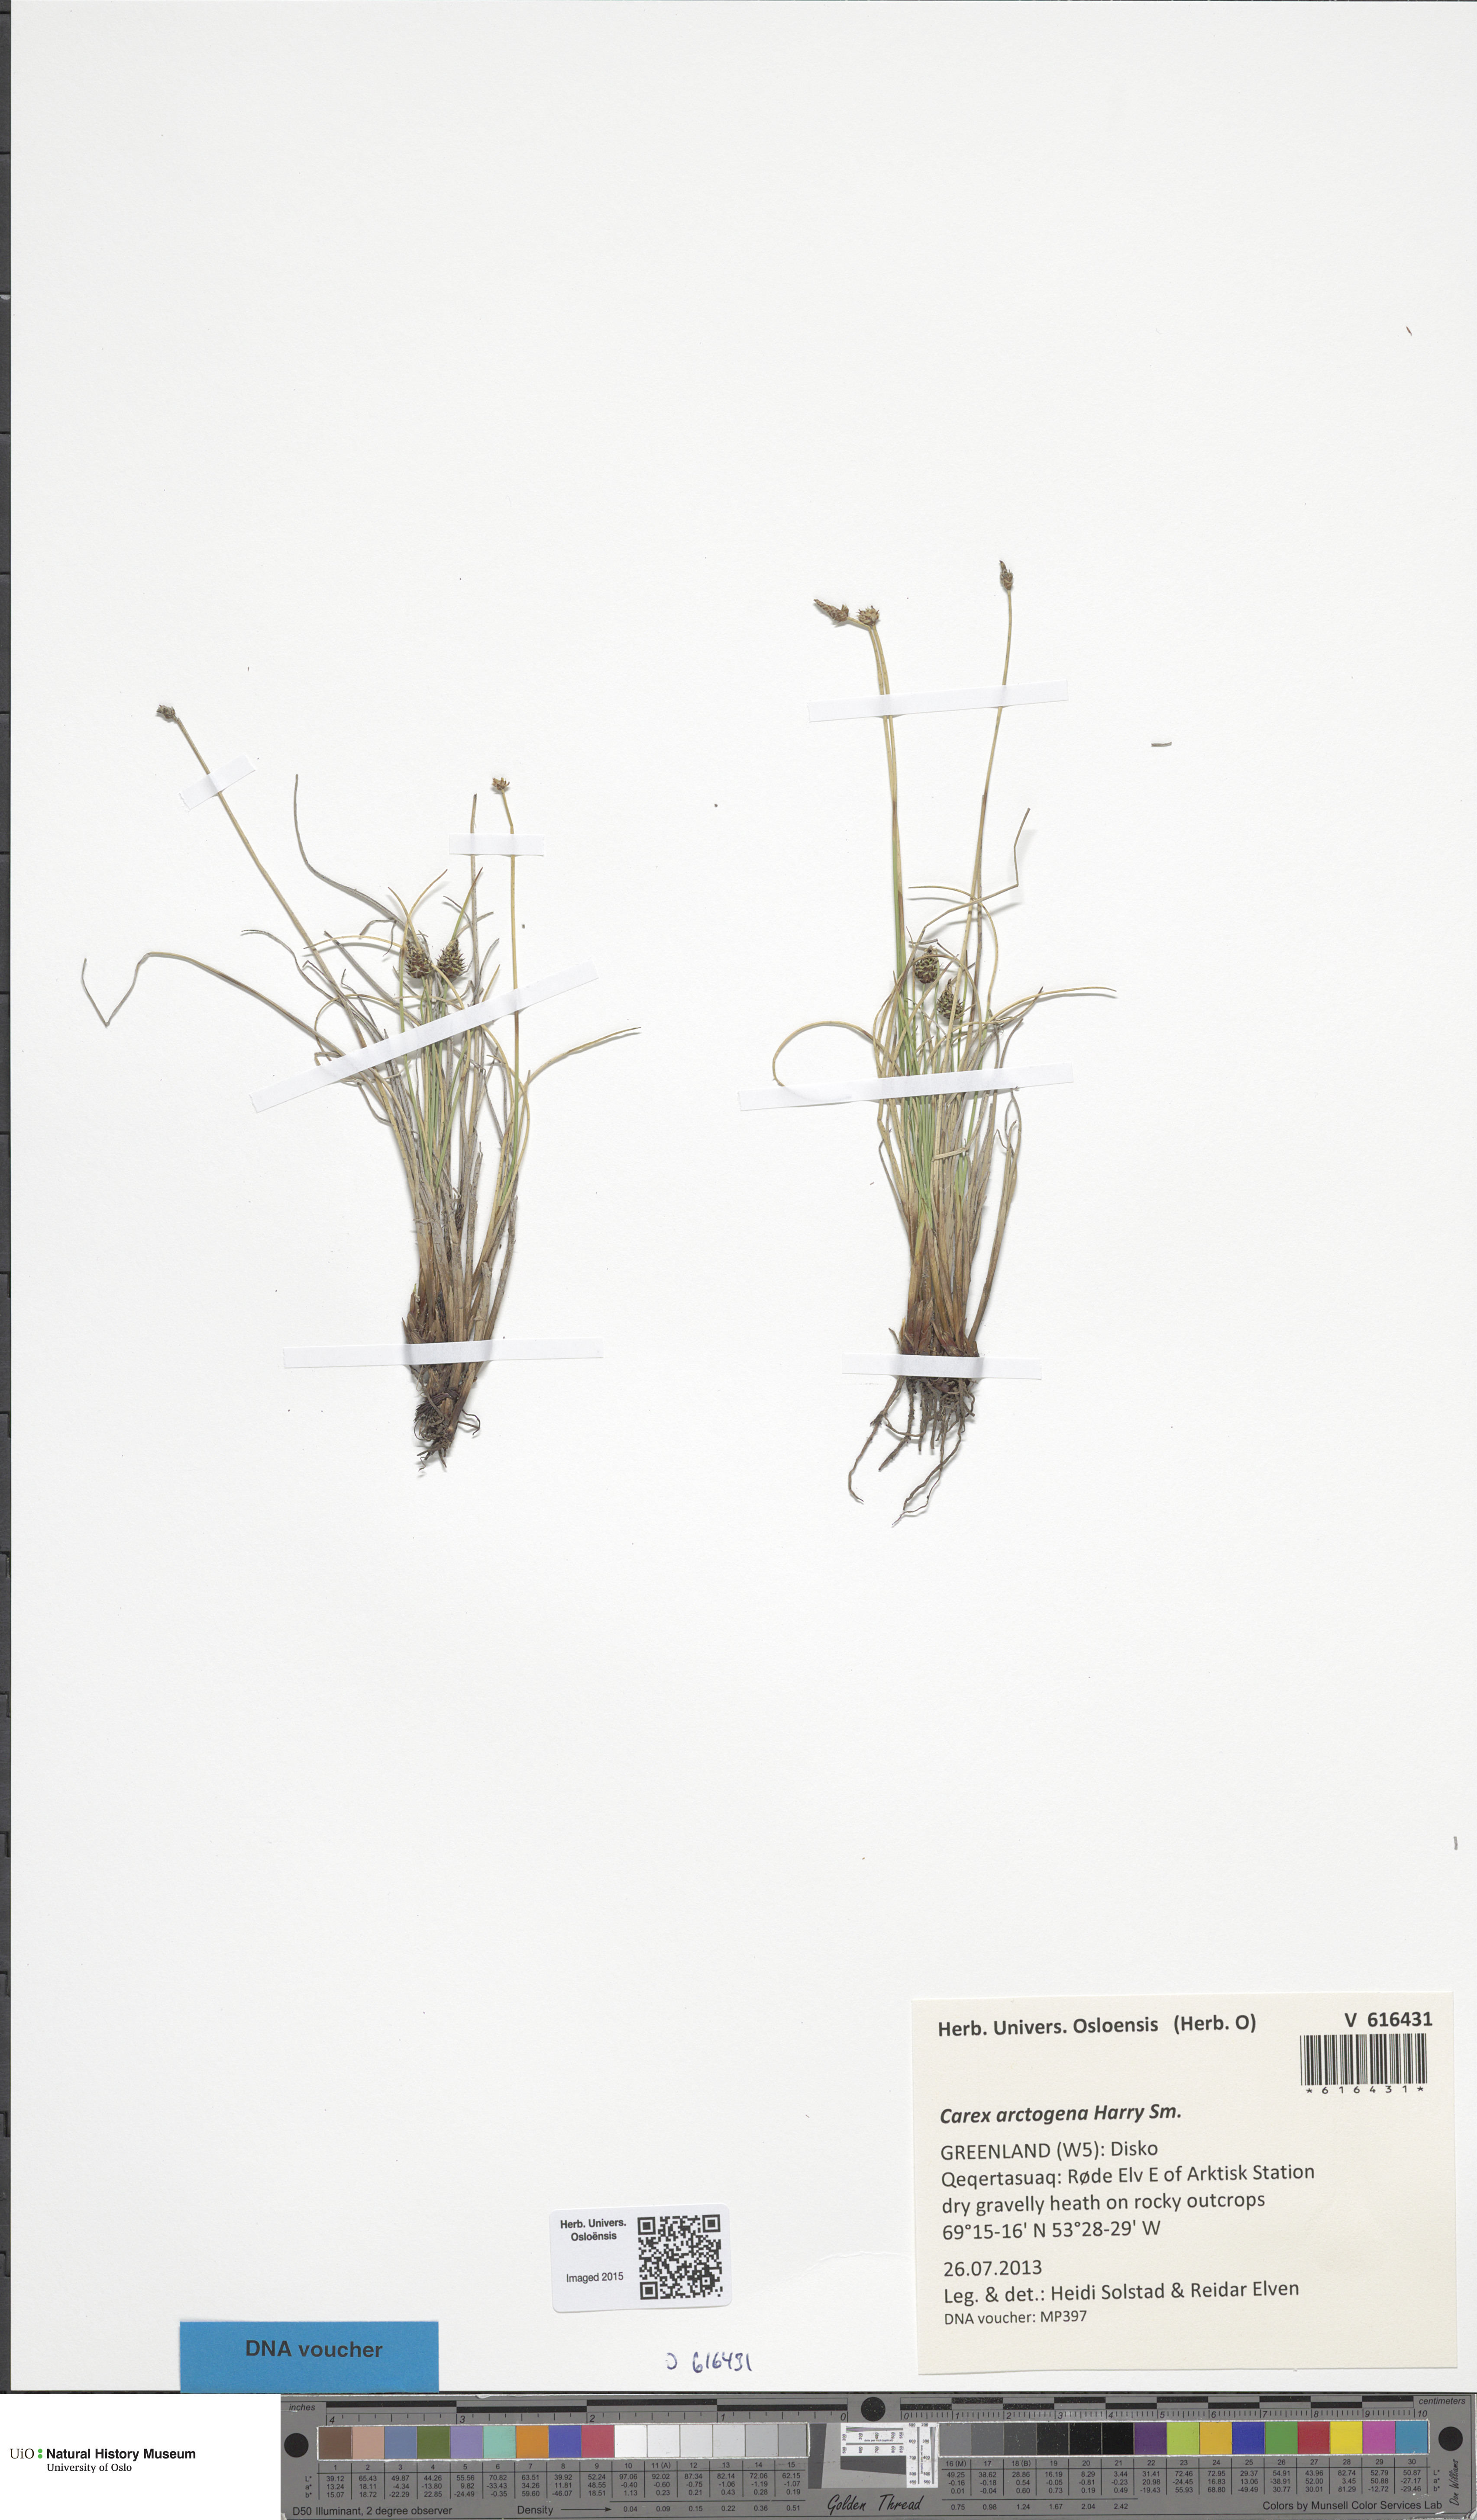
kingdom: Plantae
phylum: Tracheophyta
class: Liliopsida
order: Poales
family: Cyperaceae
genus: Carex
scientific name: Carex arctogena
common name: Black sedge
